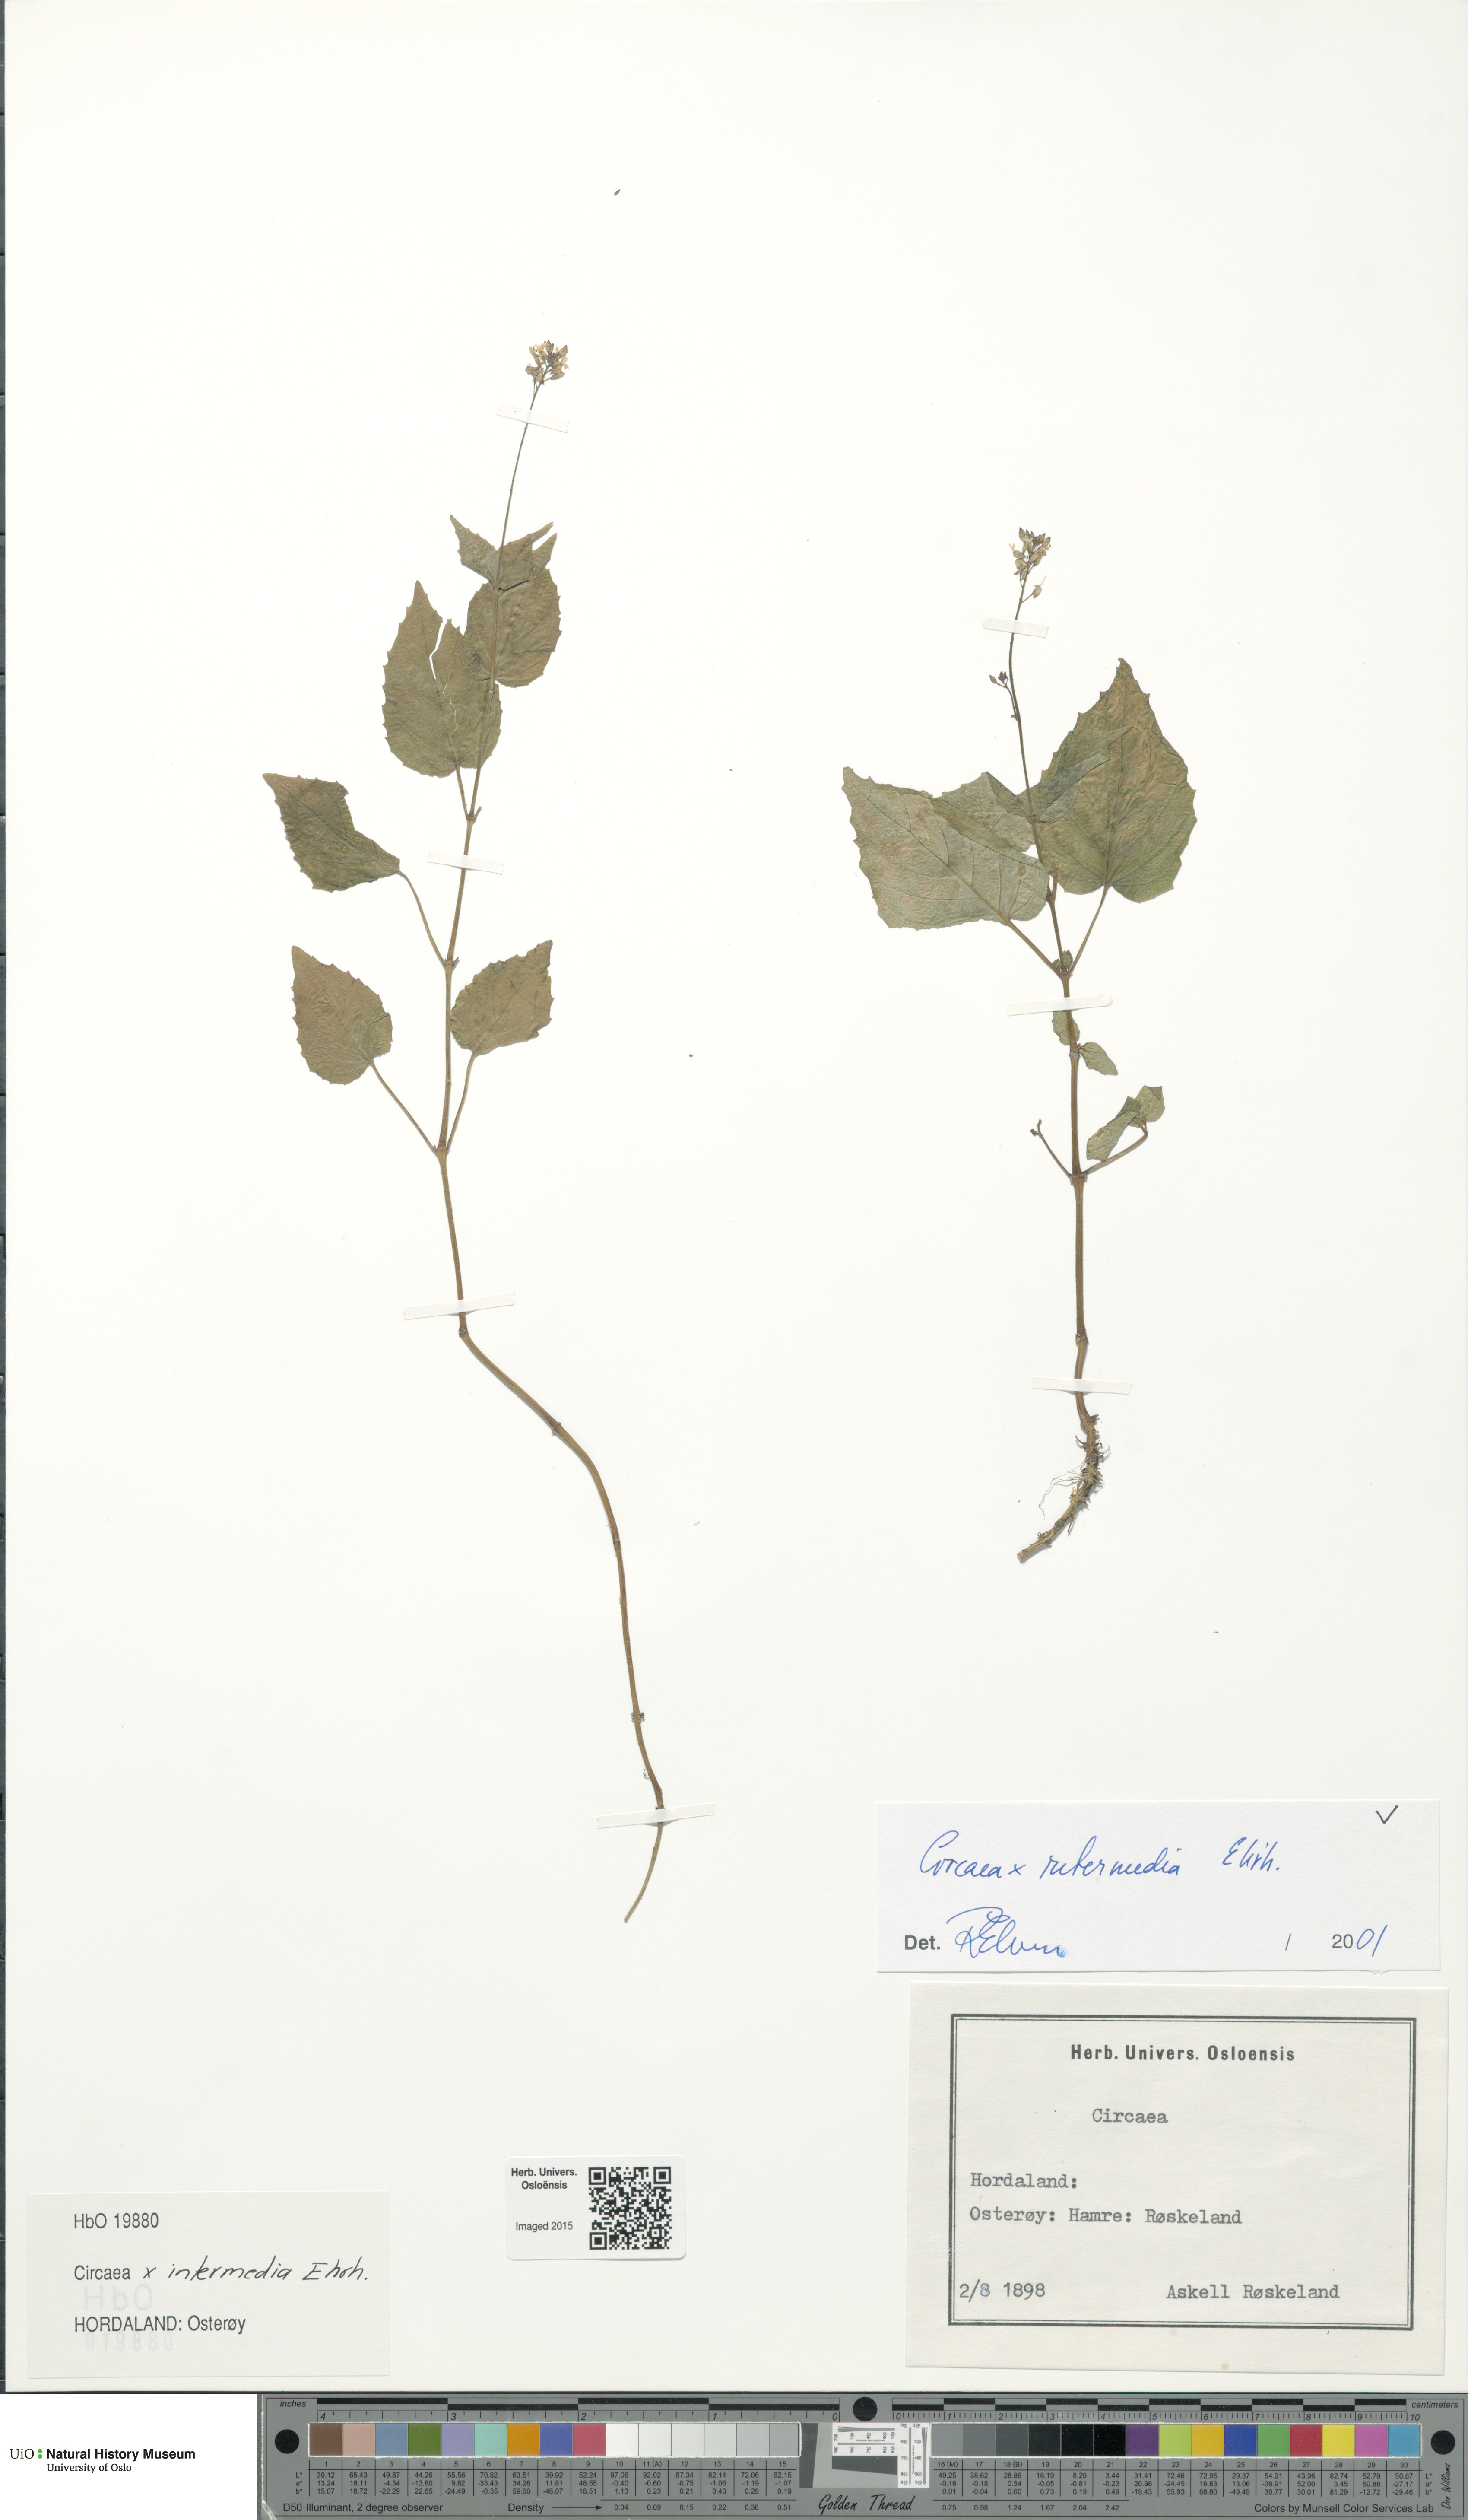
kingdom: Plantae
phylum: Tracheophyta
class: Magnoliopsida
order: Myrtales
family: Onagraceae
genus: Circaea
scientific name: Circaea intermedia
